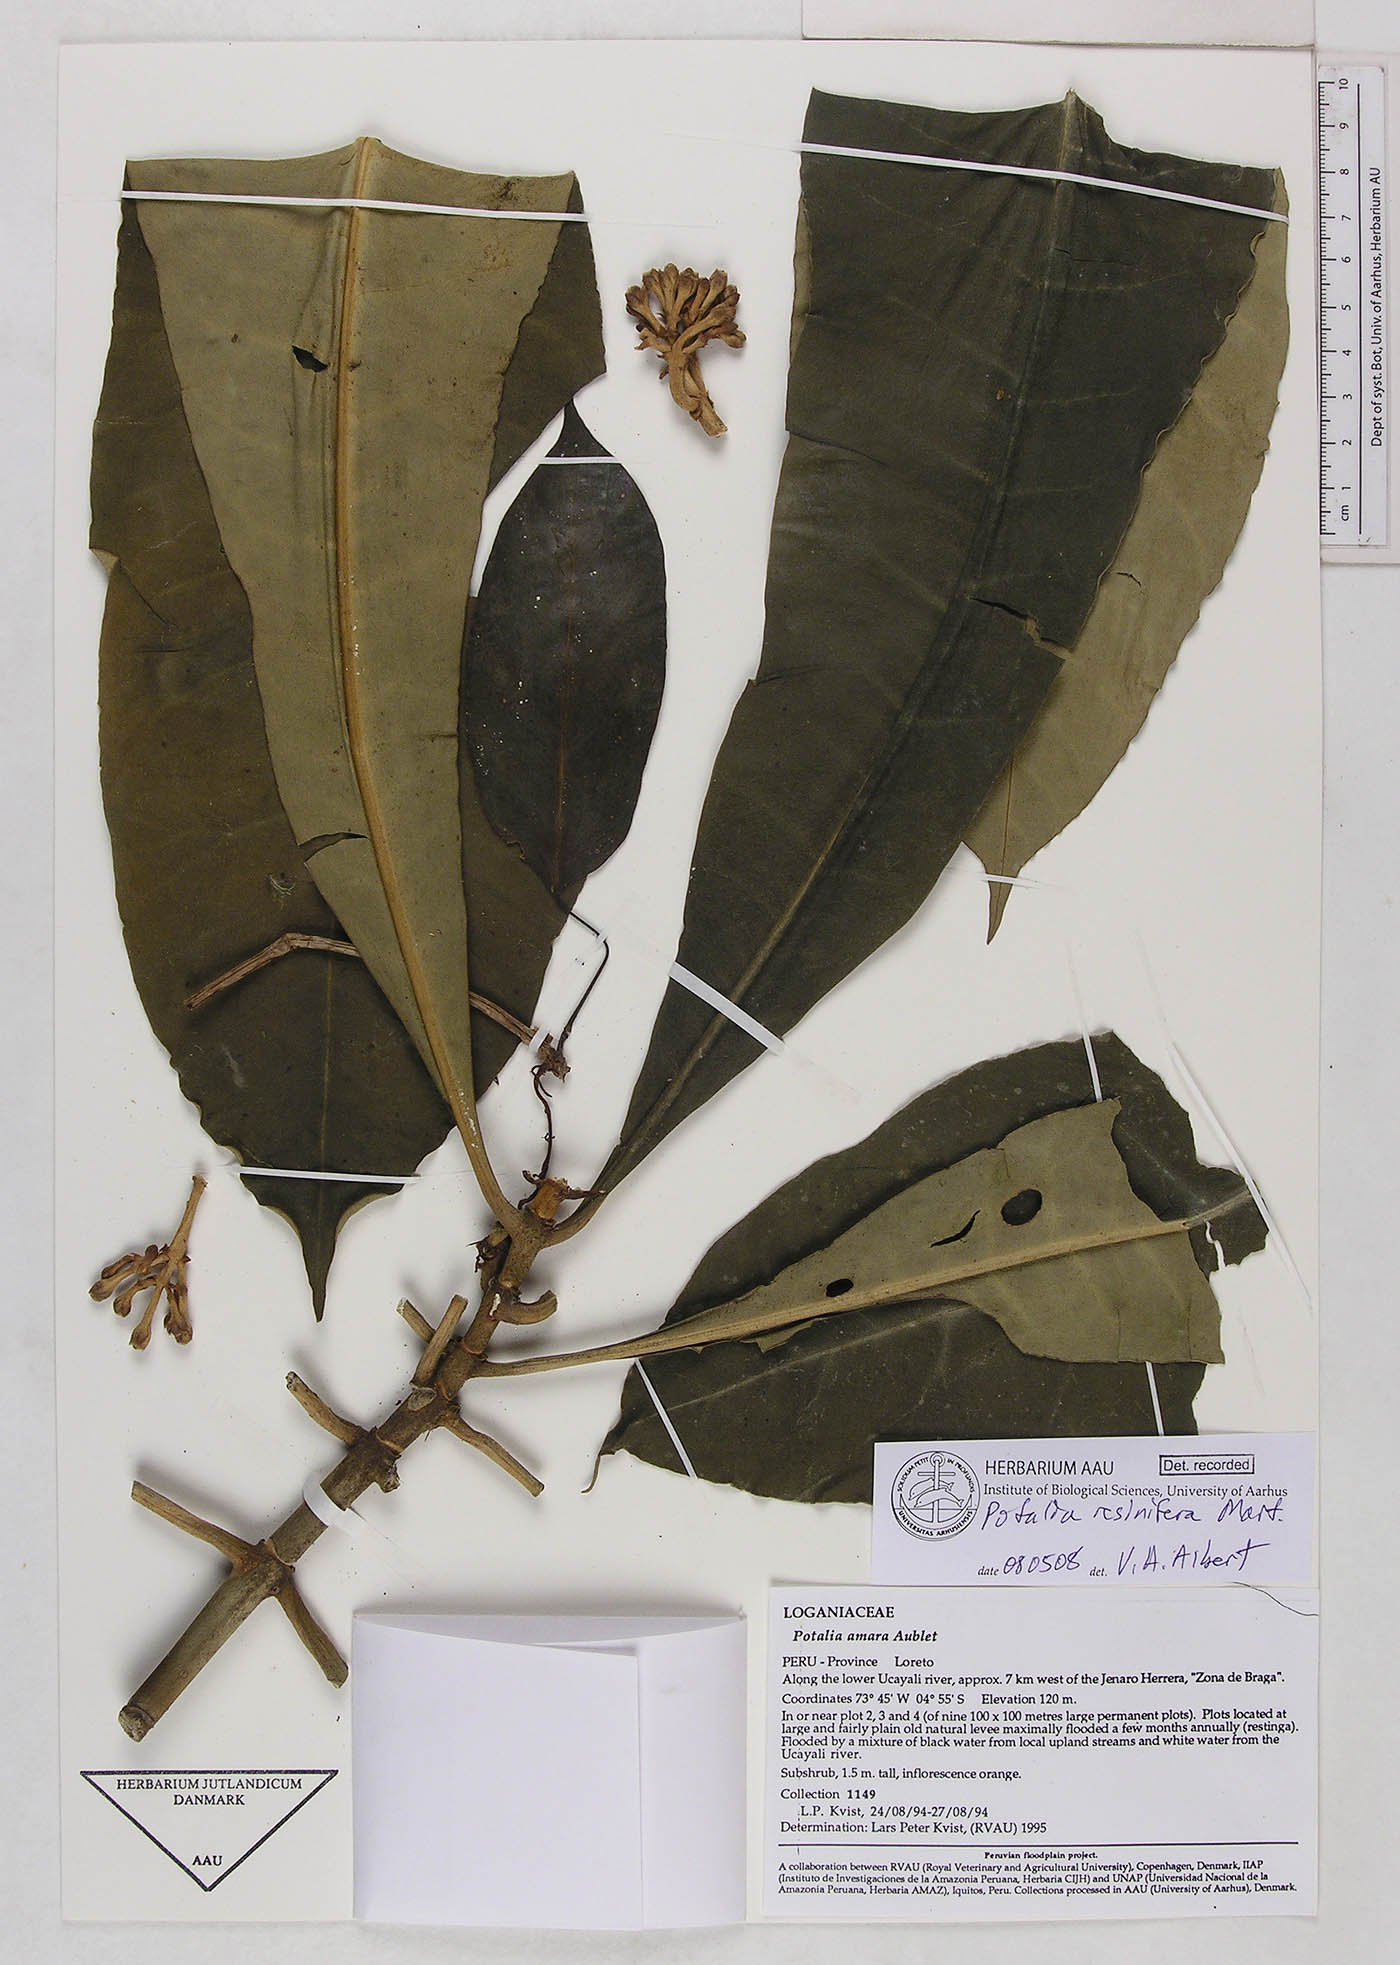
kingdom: Plantae
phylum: Tracheophyta
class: Magnoliopsida
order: Gentianales
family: Gentianaceae
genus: Potalia
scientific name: Potalia resinifera
